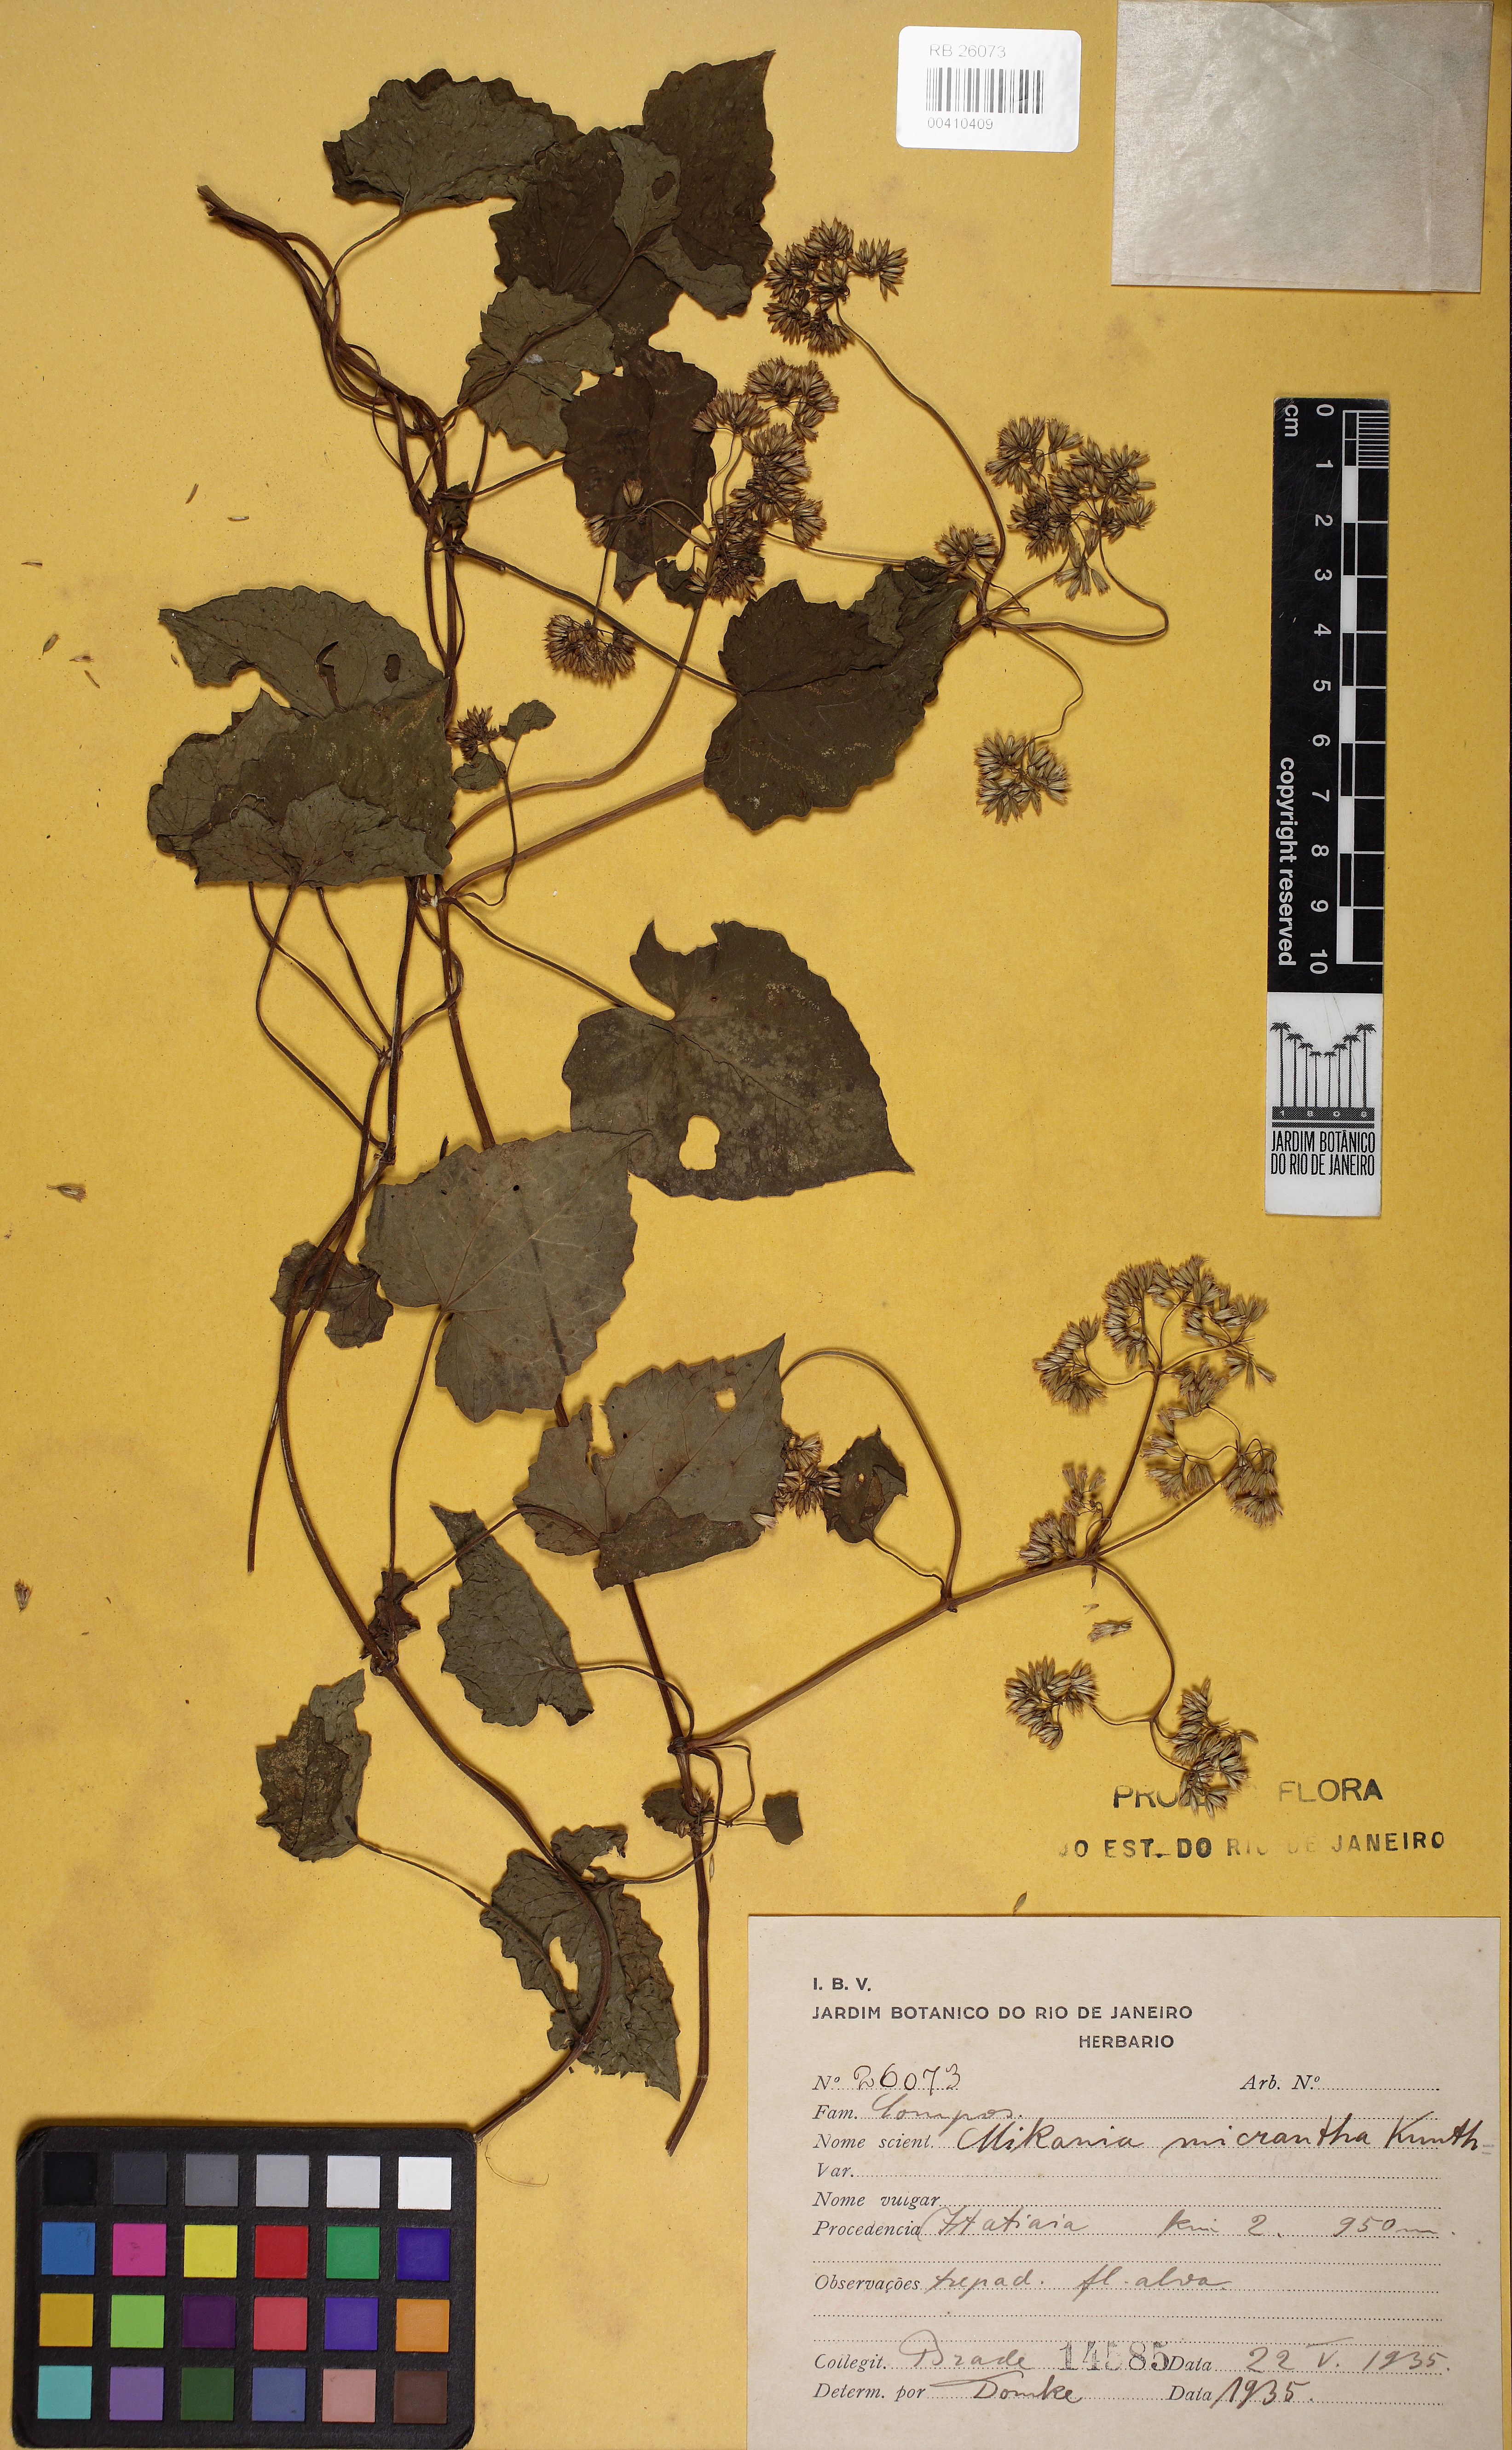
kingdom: Plantae
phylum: Tracheophyta
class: Magnoliopsida
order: Asterales
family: Asteraceae
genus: Mikania
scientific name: Mikania micrantha
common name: Mile-a-minute
